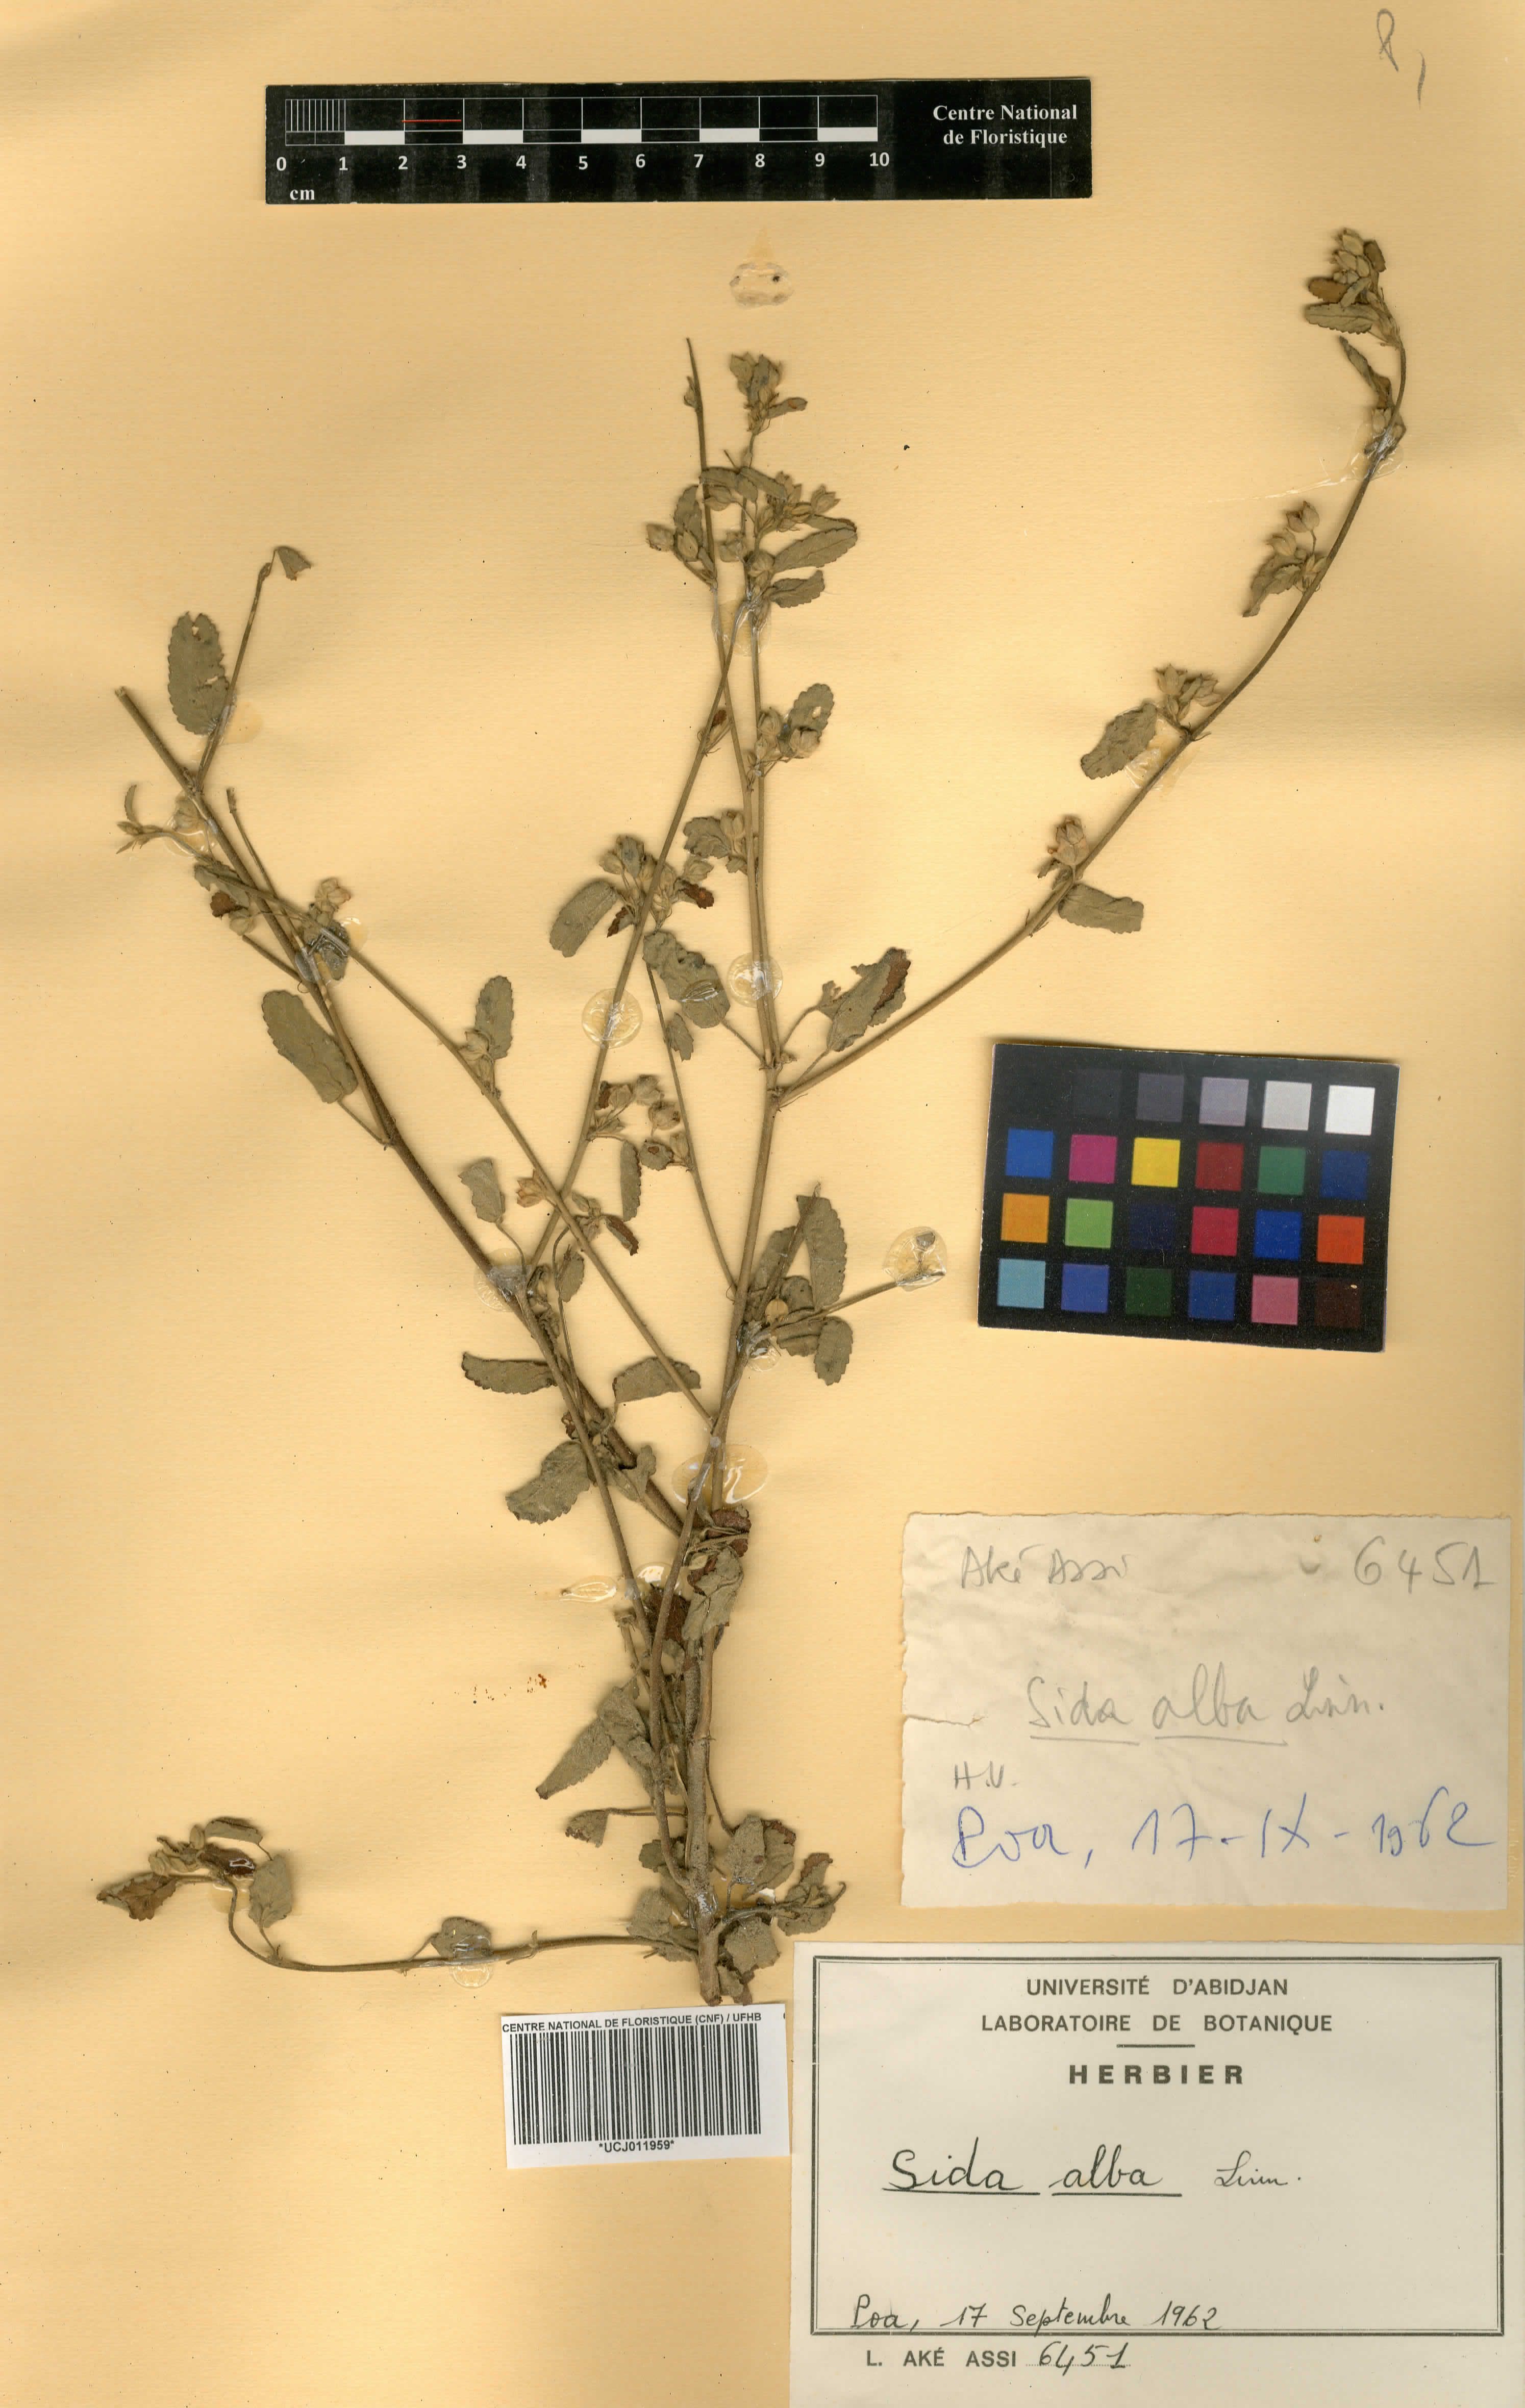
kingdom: Plantae
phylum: Tracheophyta
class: Magnoliopsida
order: Malvales
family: Malvaceae
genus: Sida
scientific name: Sida alba
